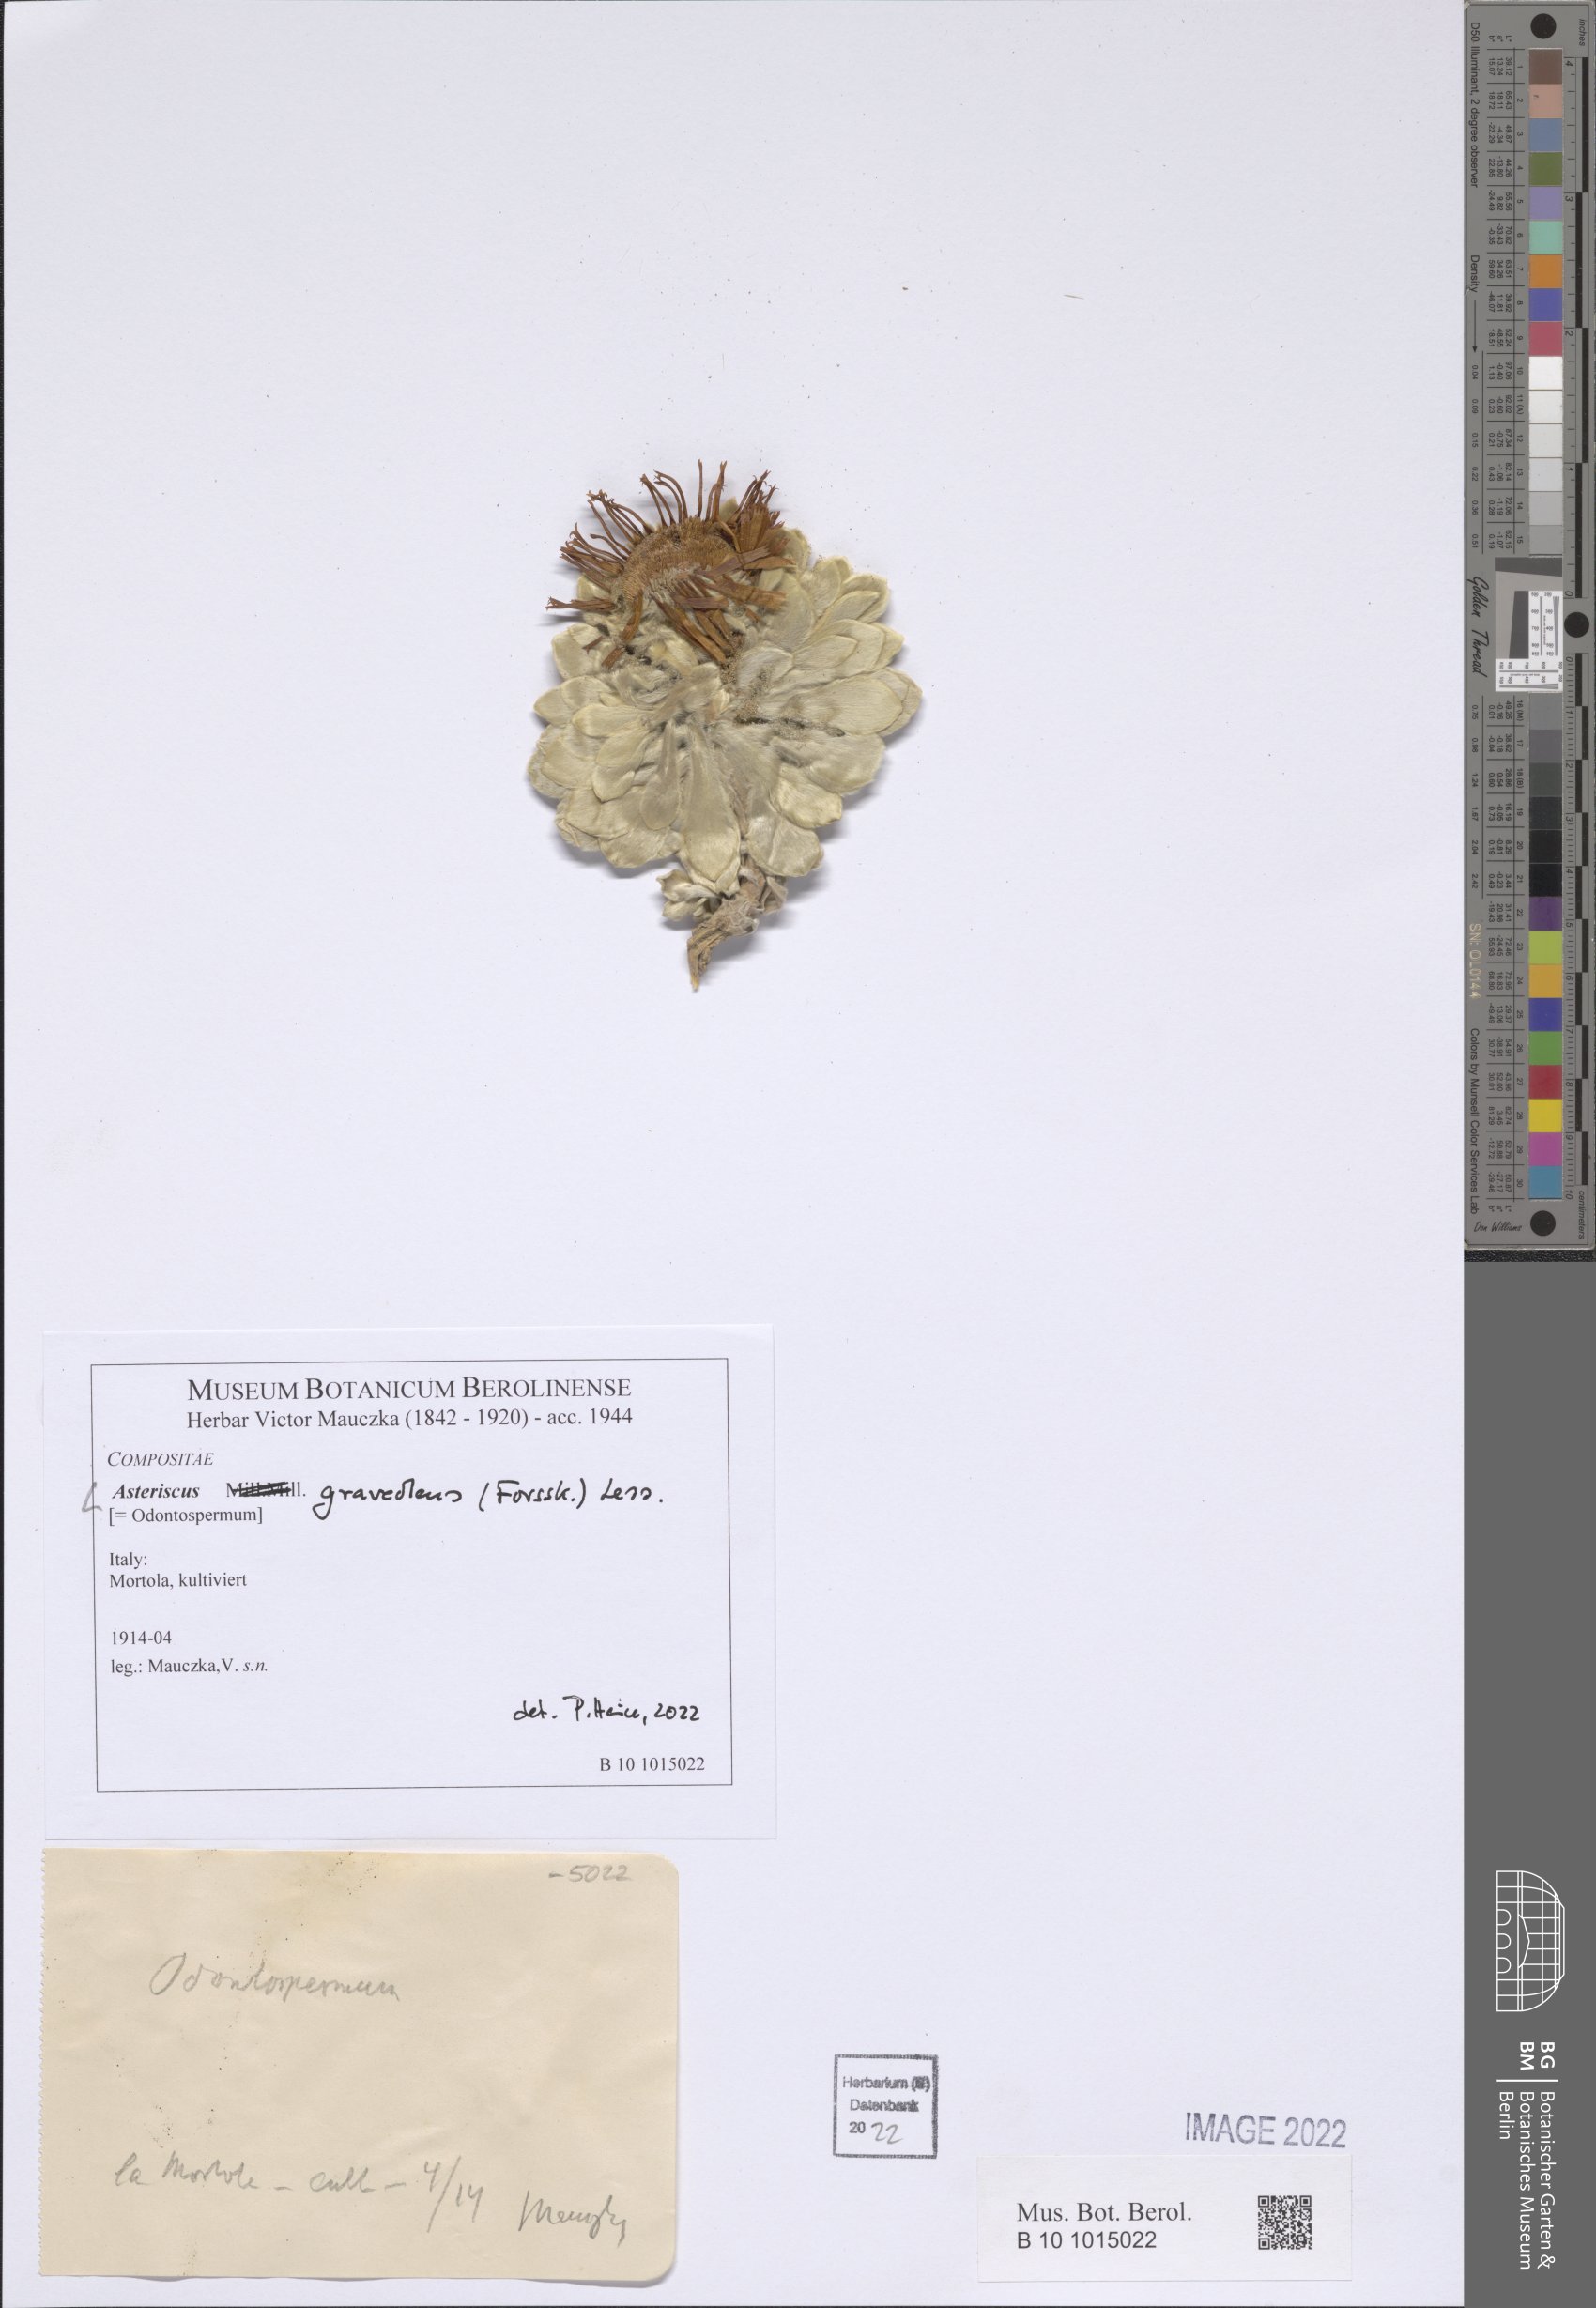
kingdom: Plantae
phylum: Tracheophyta
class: Magnoliopsida
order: Asterales
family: Asteraceae
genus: Asteriscus
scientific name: Asteriscus sericeus
